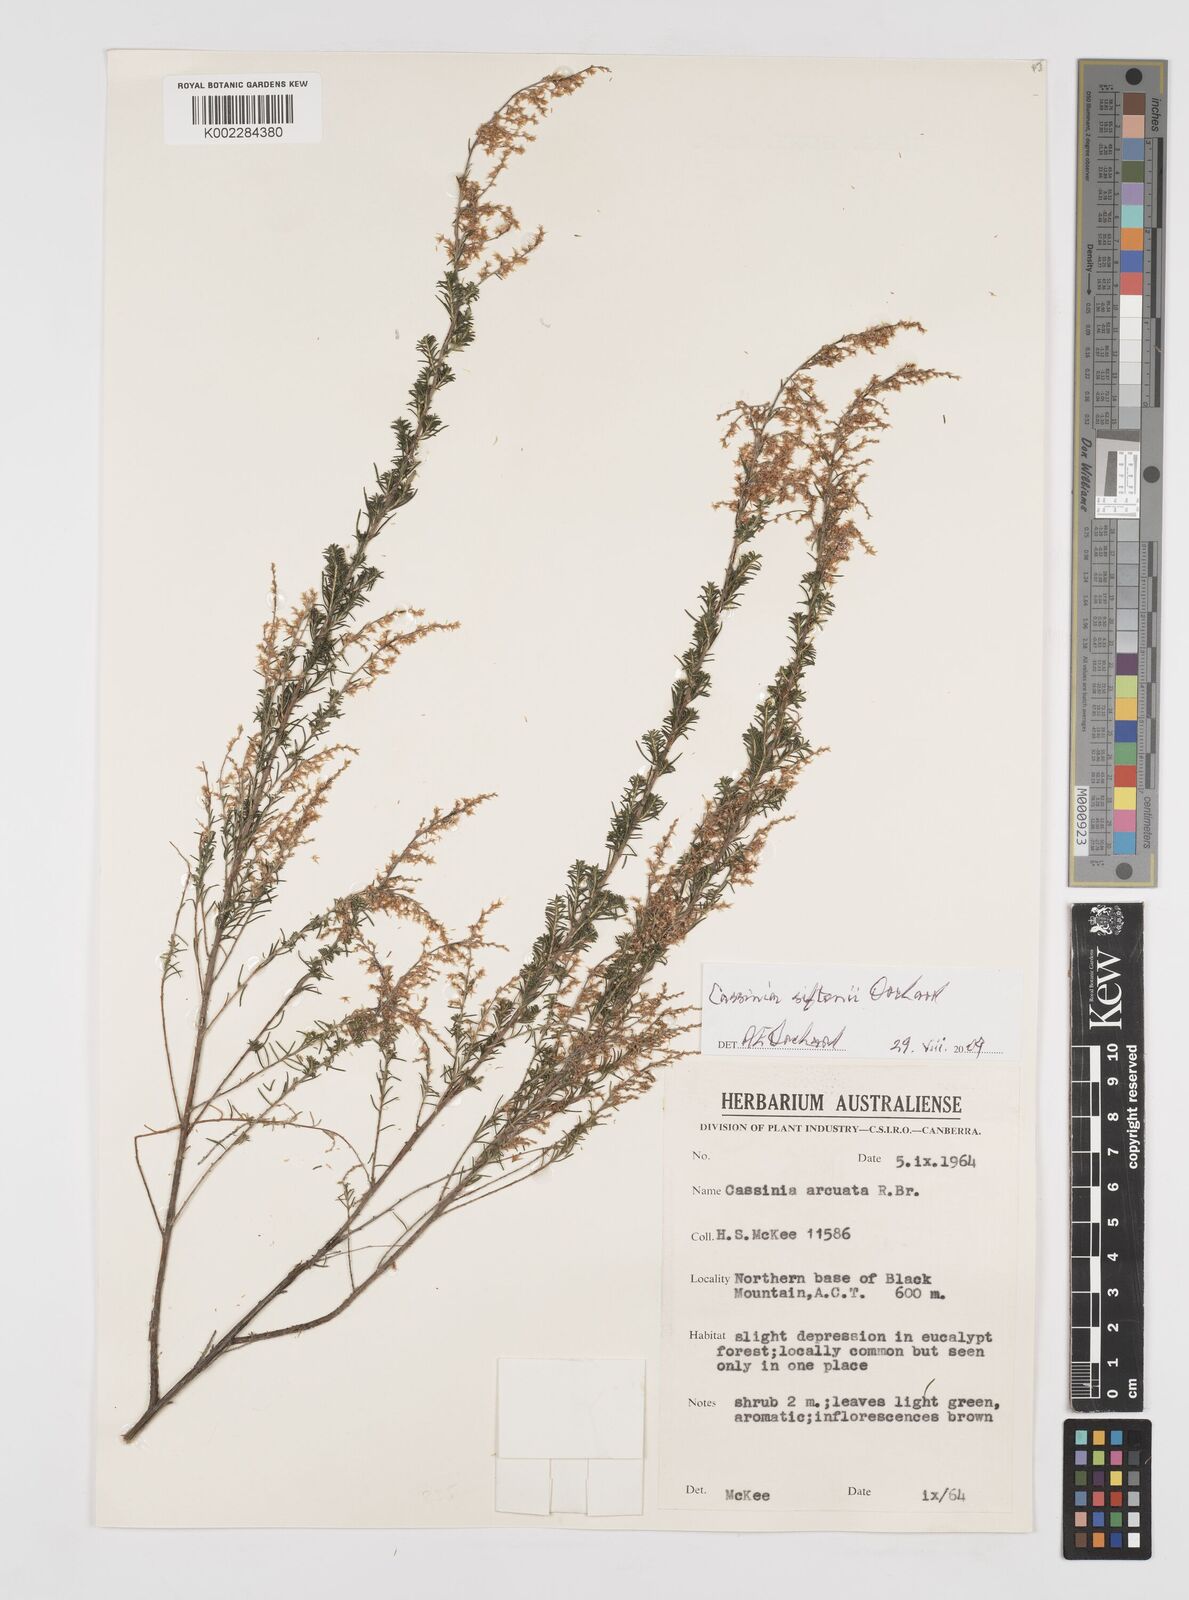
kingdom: Plantae
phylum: Tracheophyta
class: Magnoliopsida
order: Asterales
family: Asteraceae
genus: Cassinia
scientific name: Cassinia arcuata
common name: Chineseshrub
